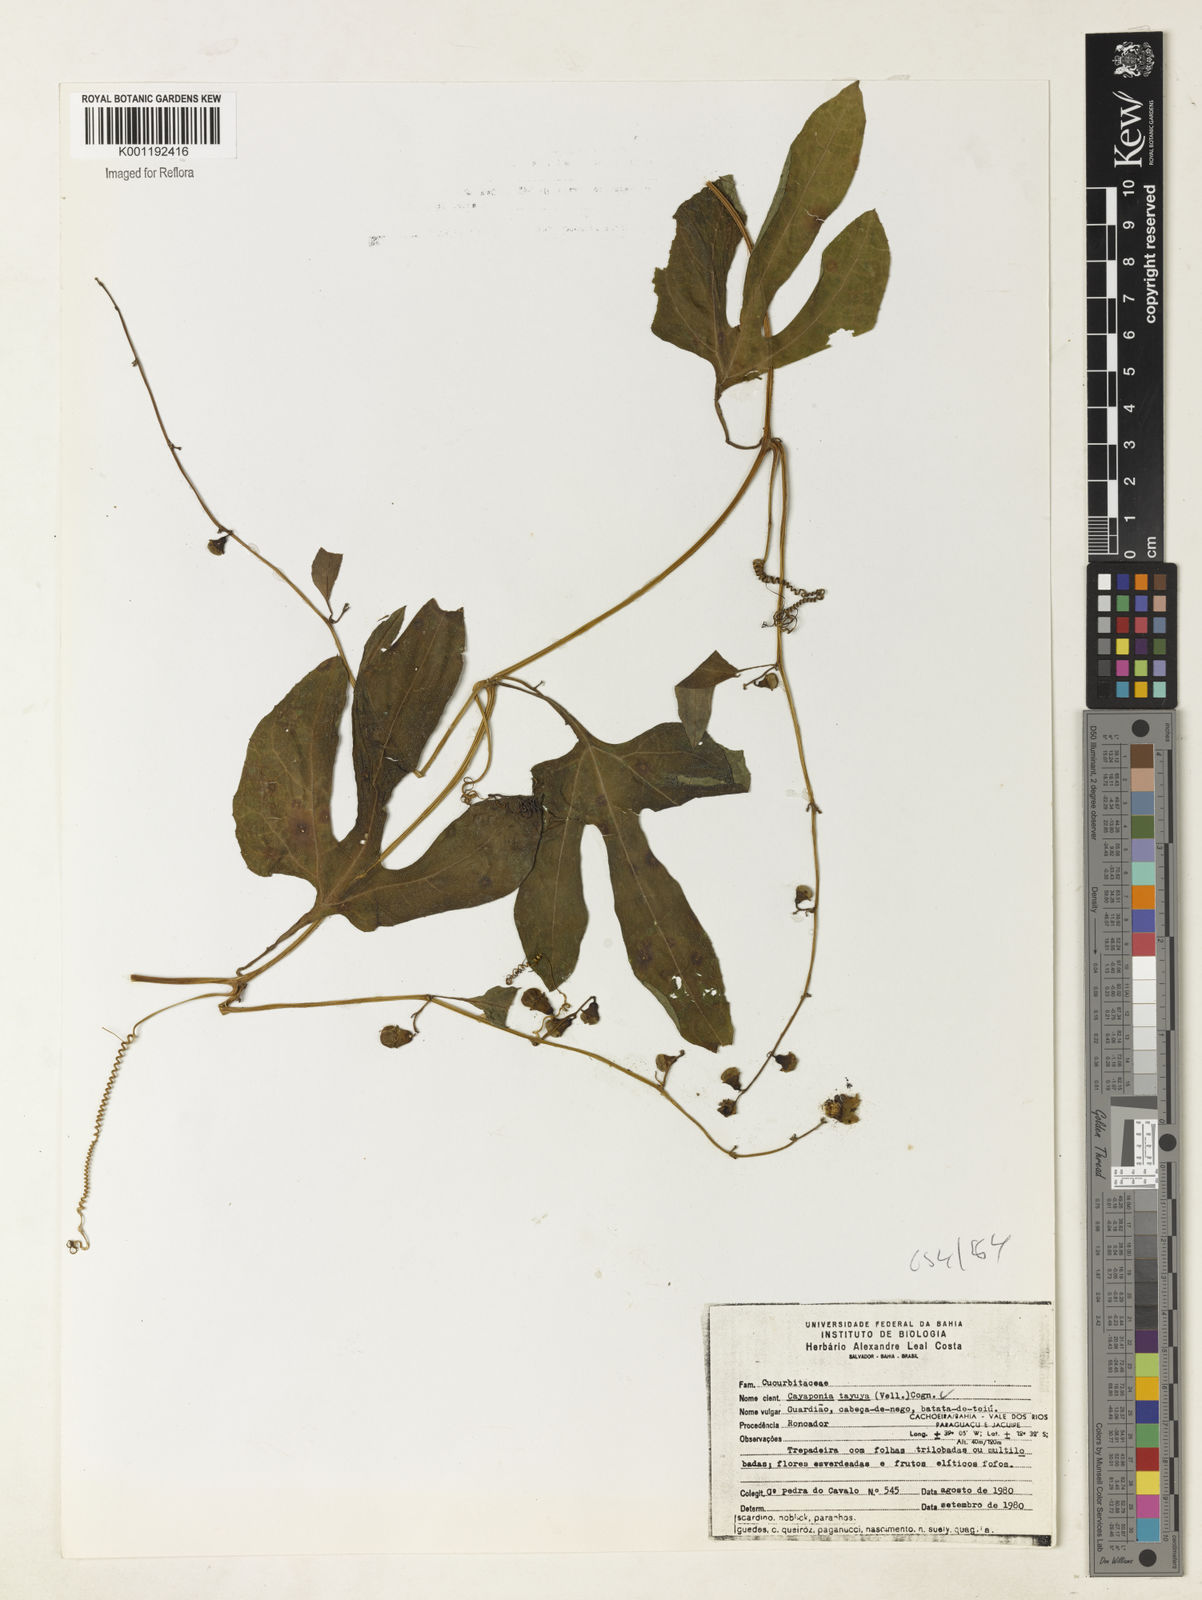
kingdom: Plantae
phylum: Tracheophyta
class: Magnoliopsida
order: Cucurbitales
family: Cucurbitaceae
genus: Cayaponia
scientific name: Cayaponia tayuya
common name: Tayuya
